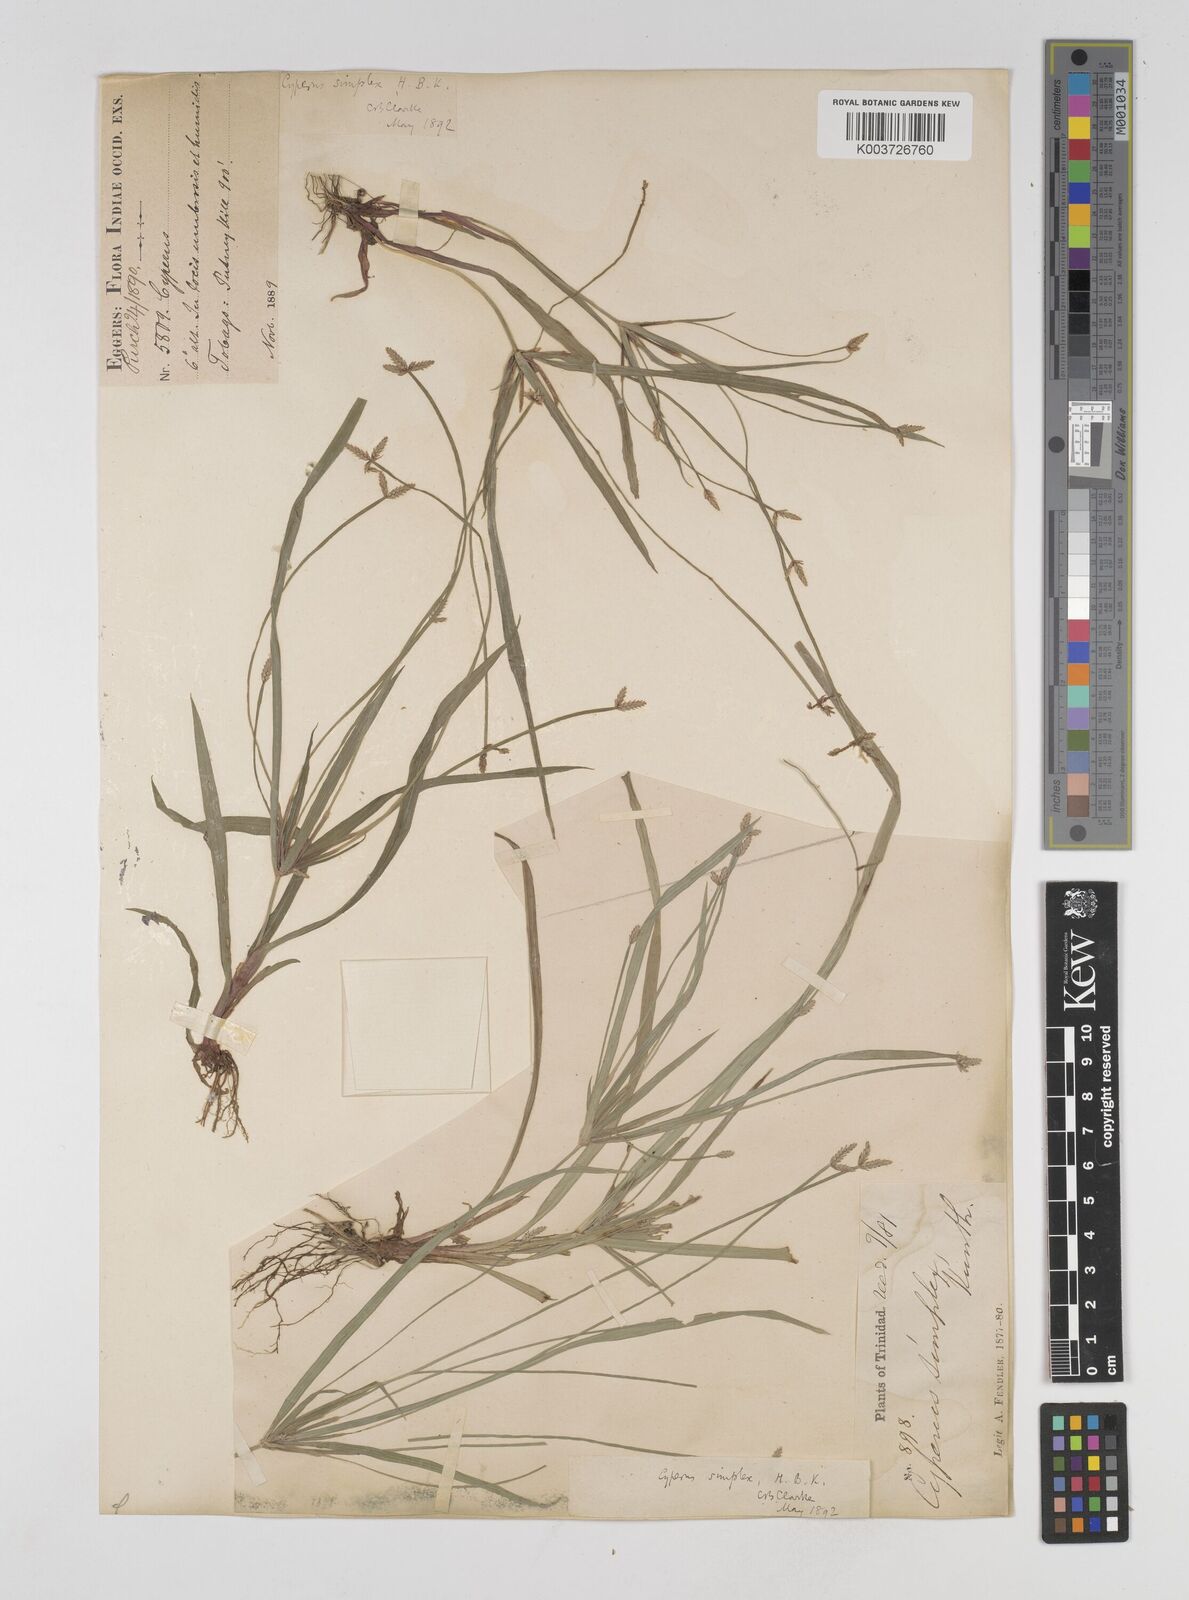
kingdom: Plantae
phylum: Tracheophyta
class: Liliopsida
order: Poales
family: Cyperaceae
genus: Cyperus
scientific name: Cyperus simplex
